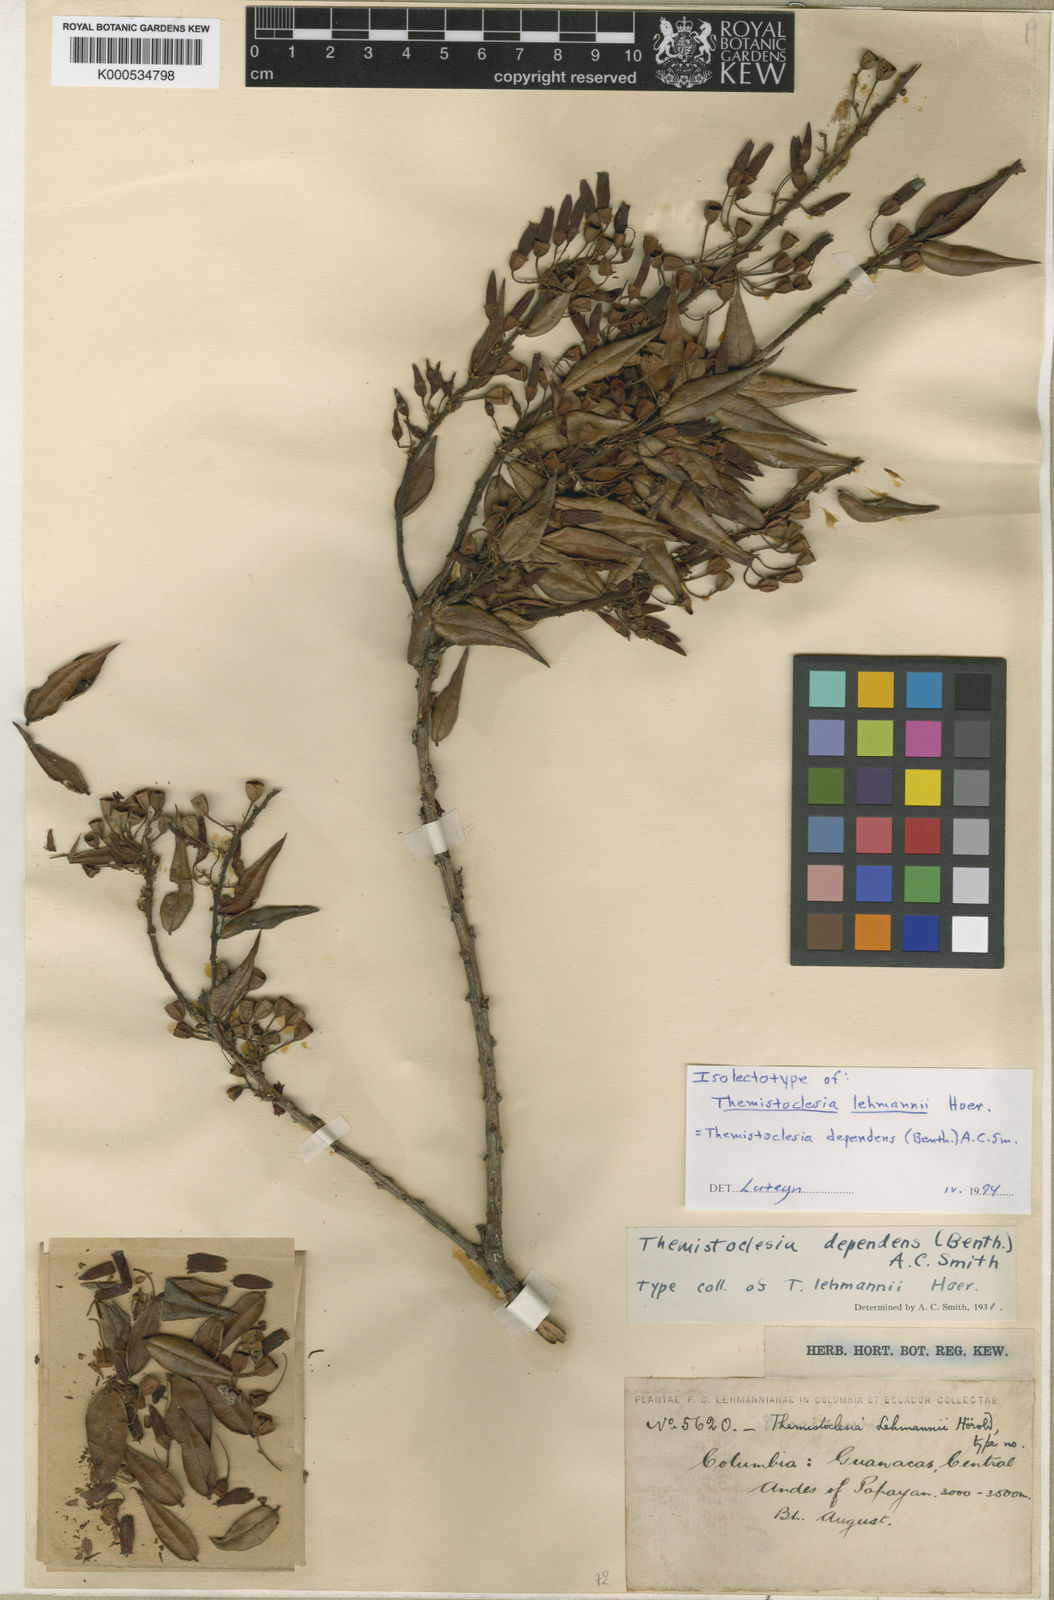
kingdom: Plantae
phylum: Tracheophyta
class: Magnoliopsida
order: Ericales
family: Ericaceae
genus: Themistoclesia
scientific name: Themistoclesia dependens
